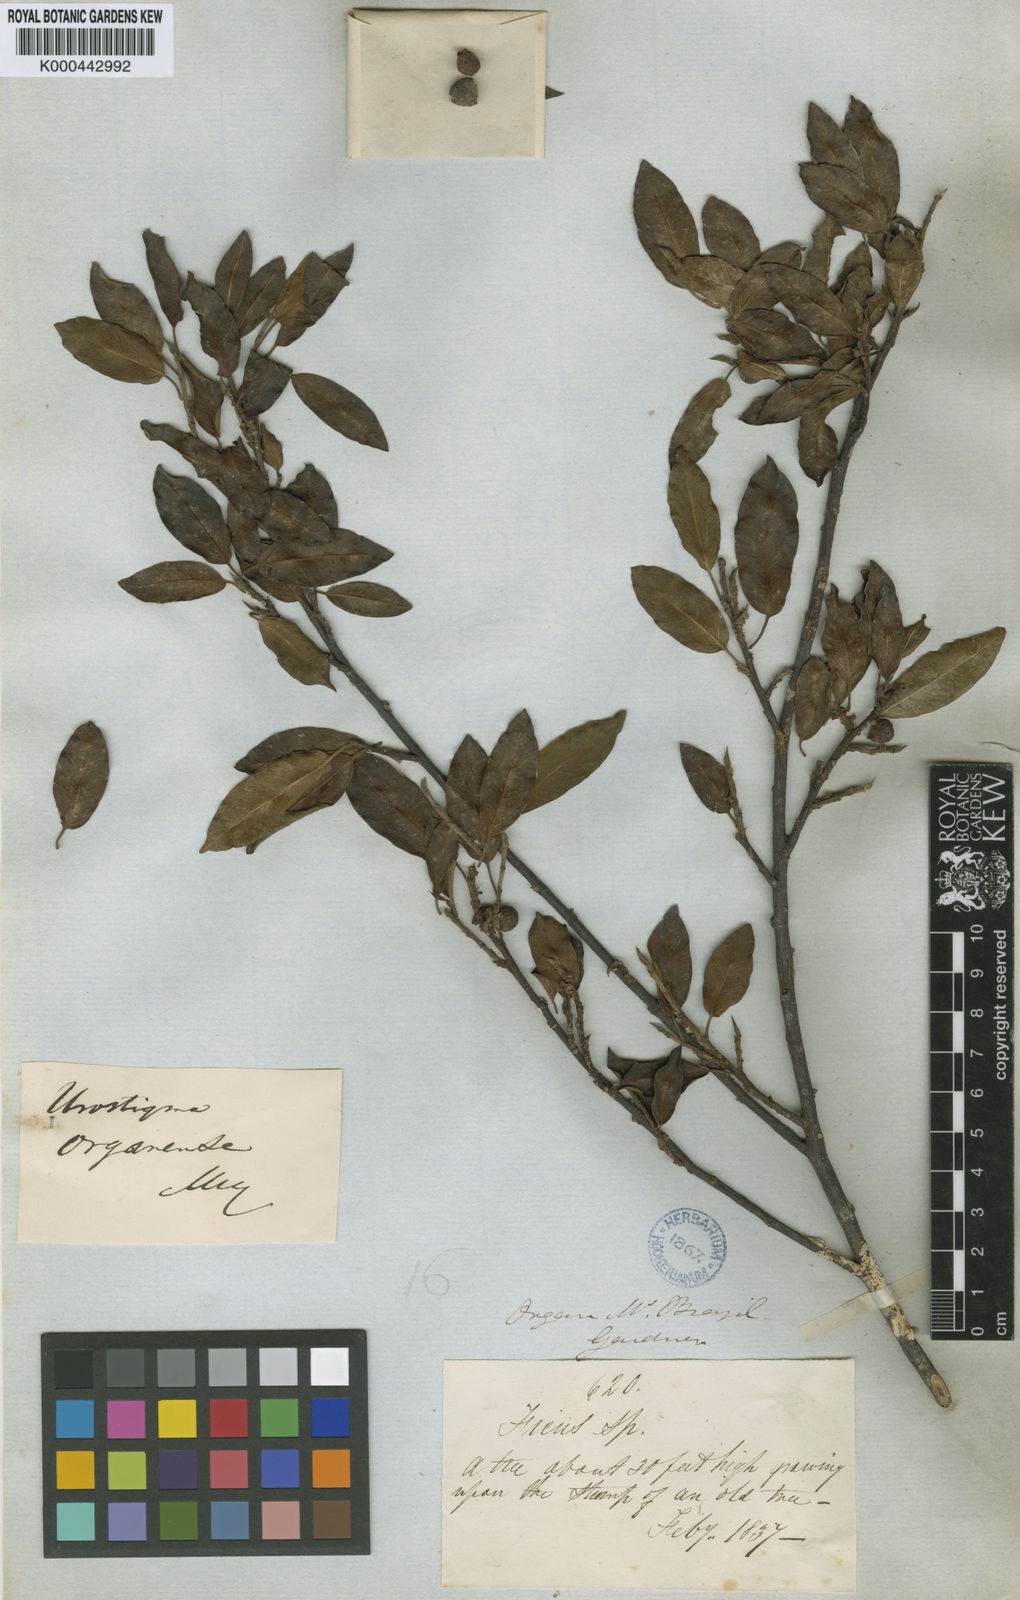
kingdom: Plantae
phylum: Tracheophyta
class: Magnoliopsida
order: Rosales
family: Moraceae
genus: Ficus
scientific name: Ficus organensis
